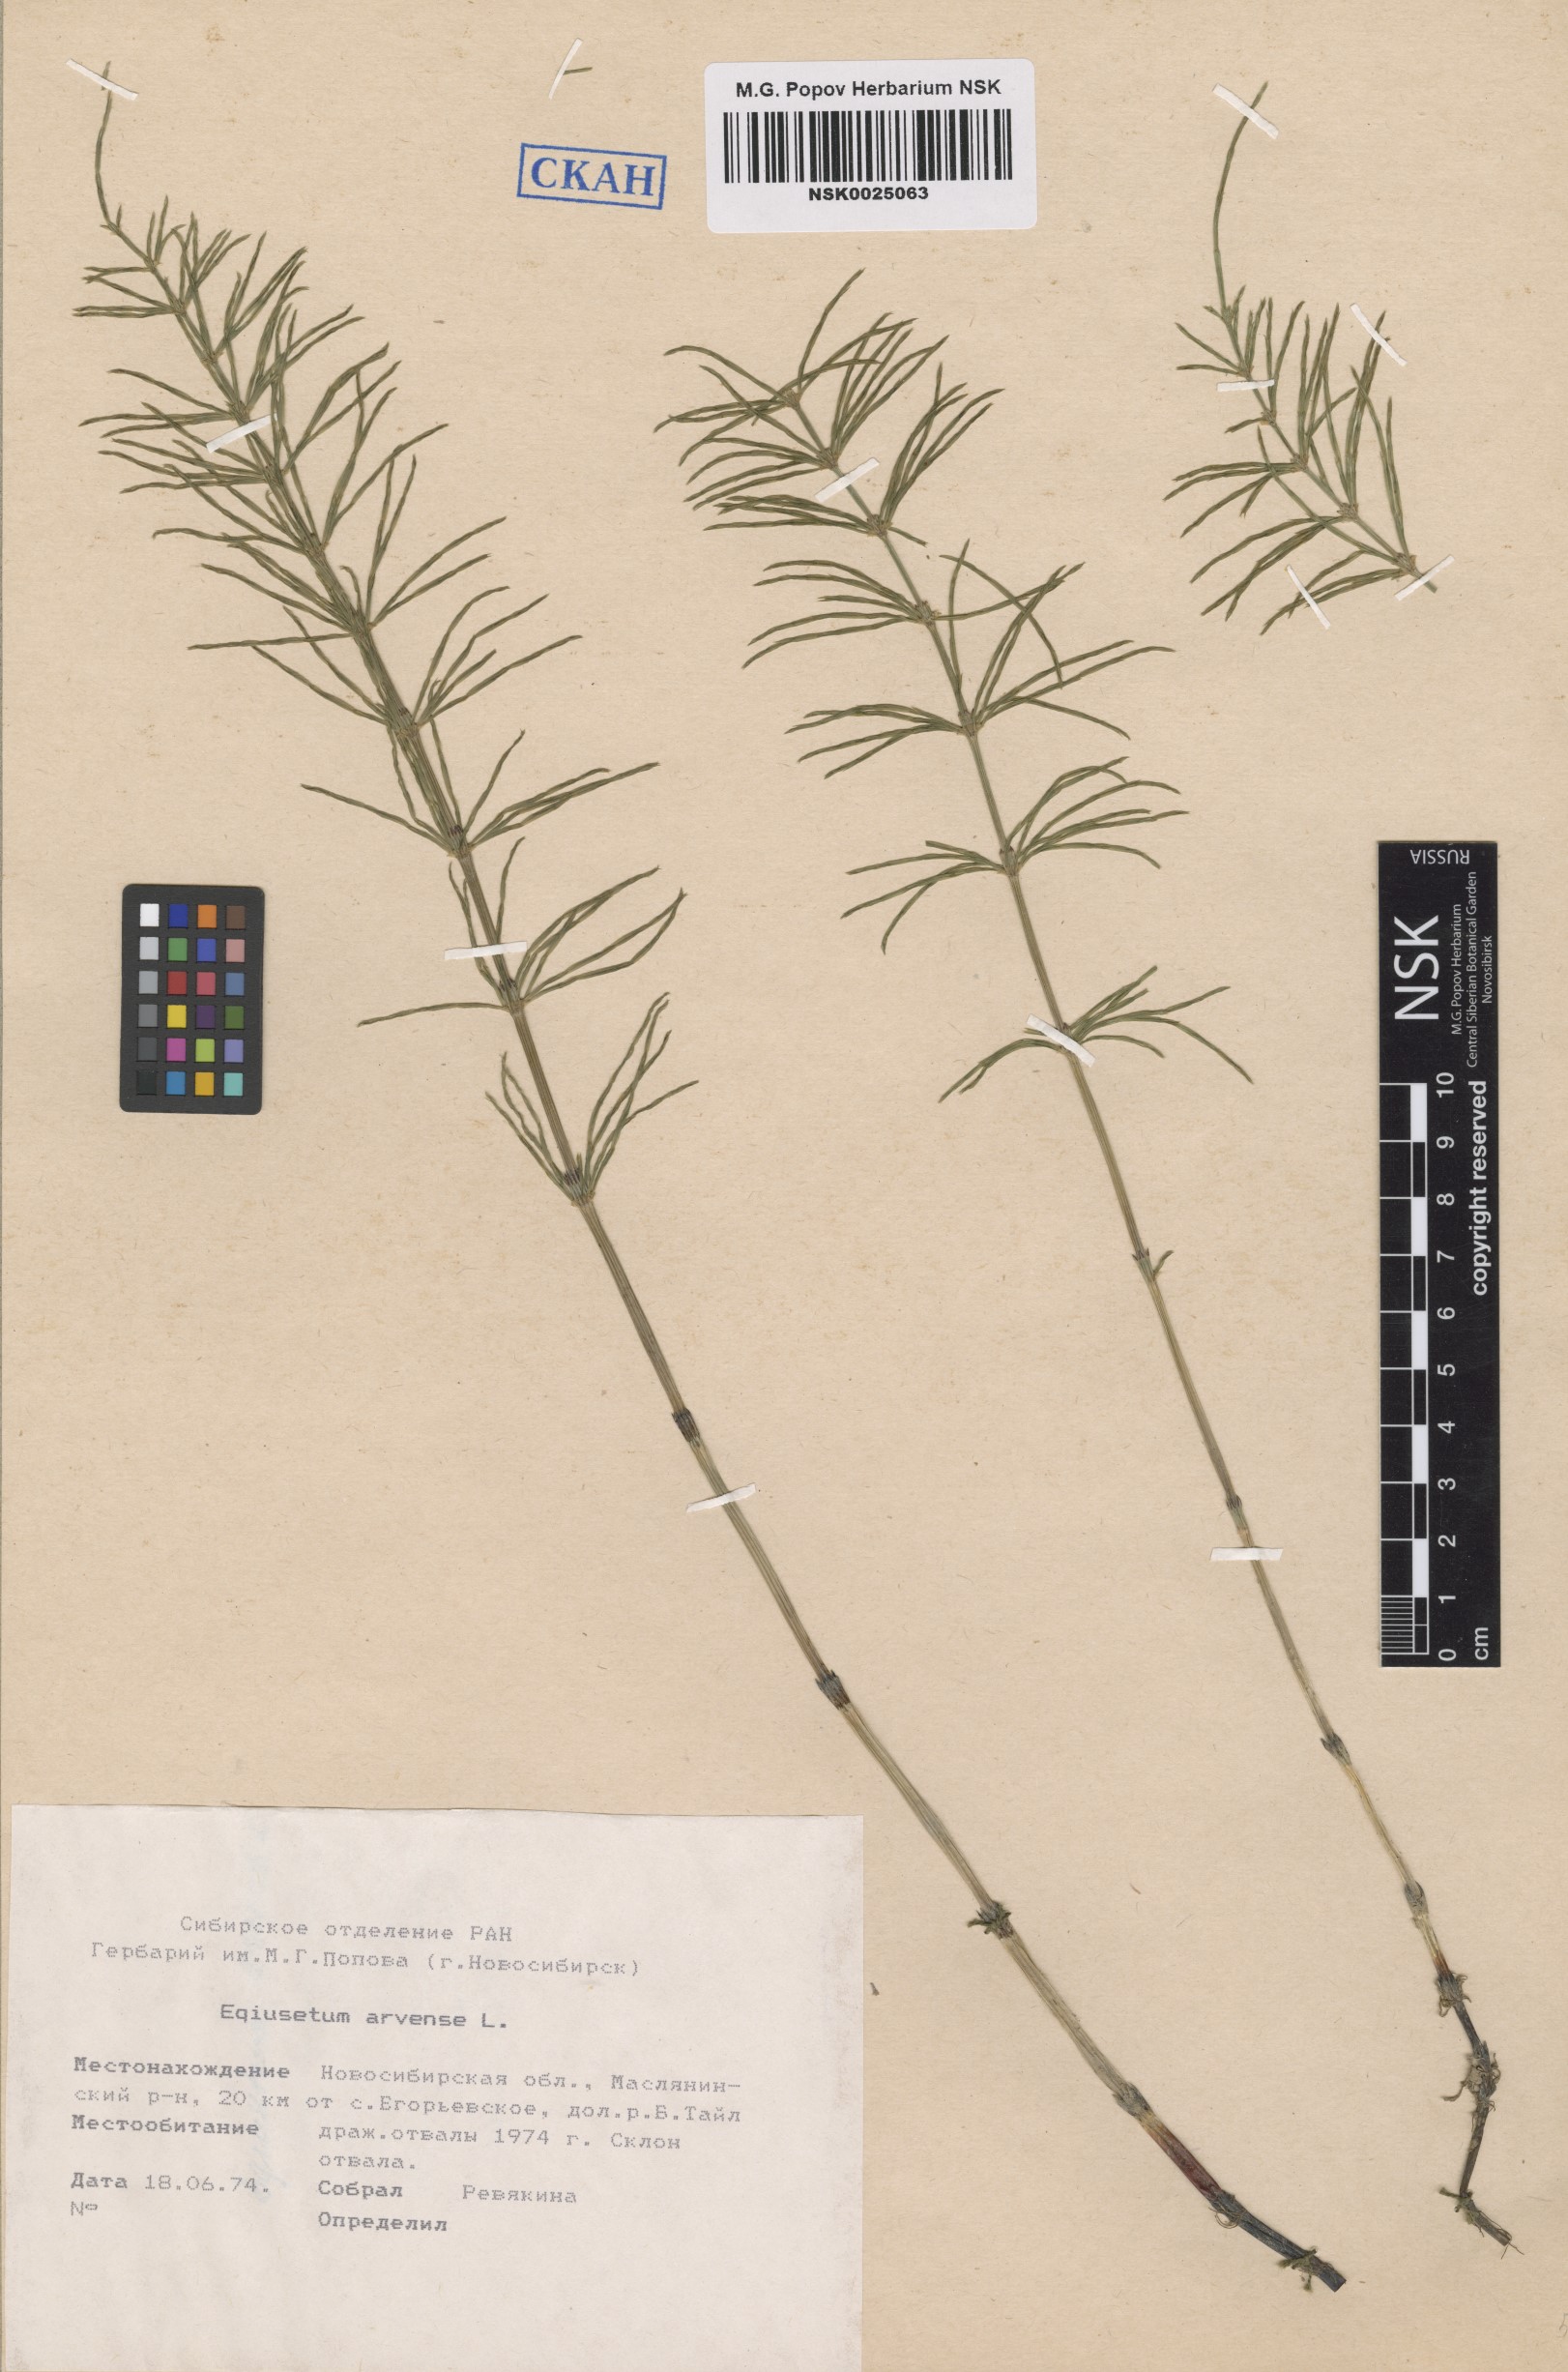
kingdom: Plantae
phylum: Tracheophyta
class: Polypodiopsida
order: Equisetales
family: Equisetaceae
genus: Equisetum
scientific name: Equisetum arvense
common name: Field horsetail
